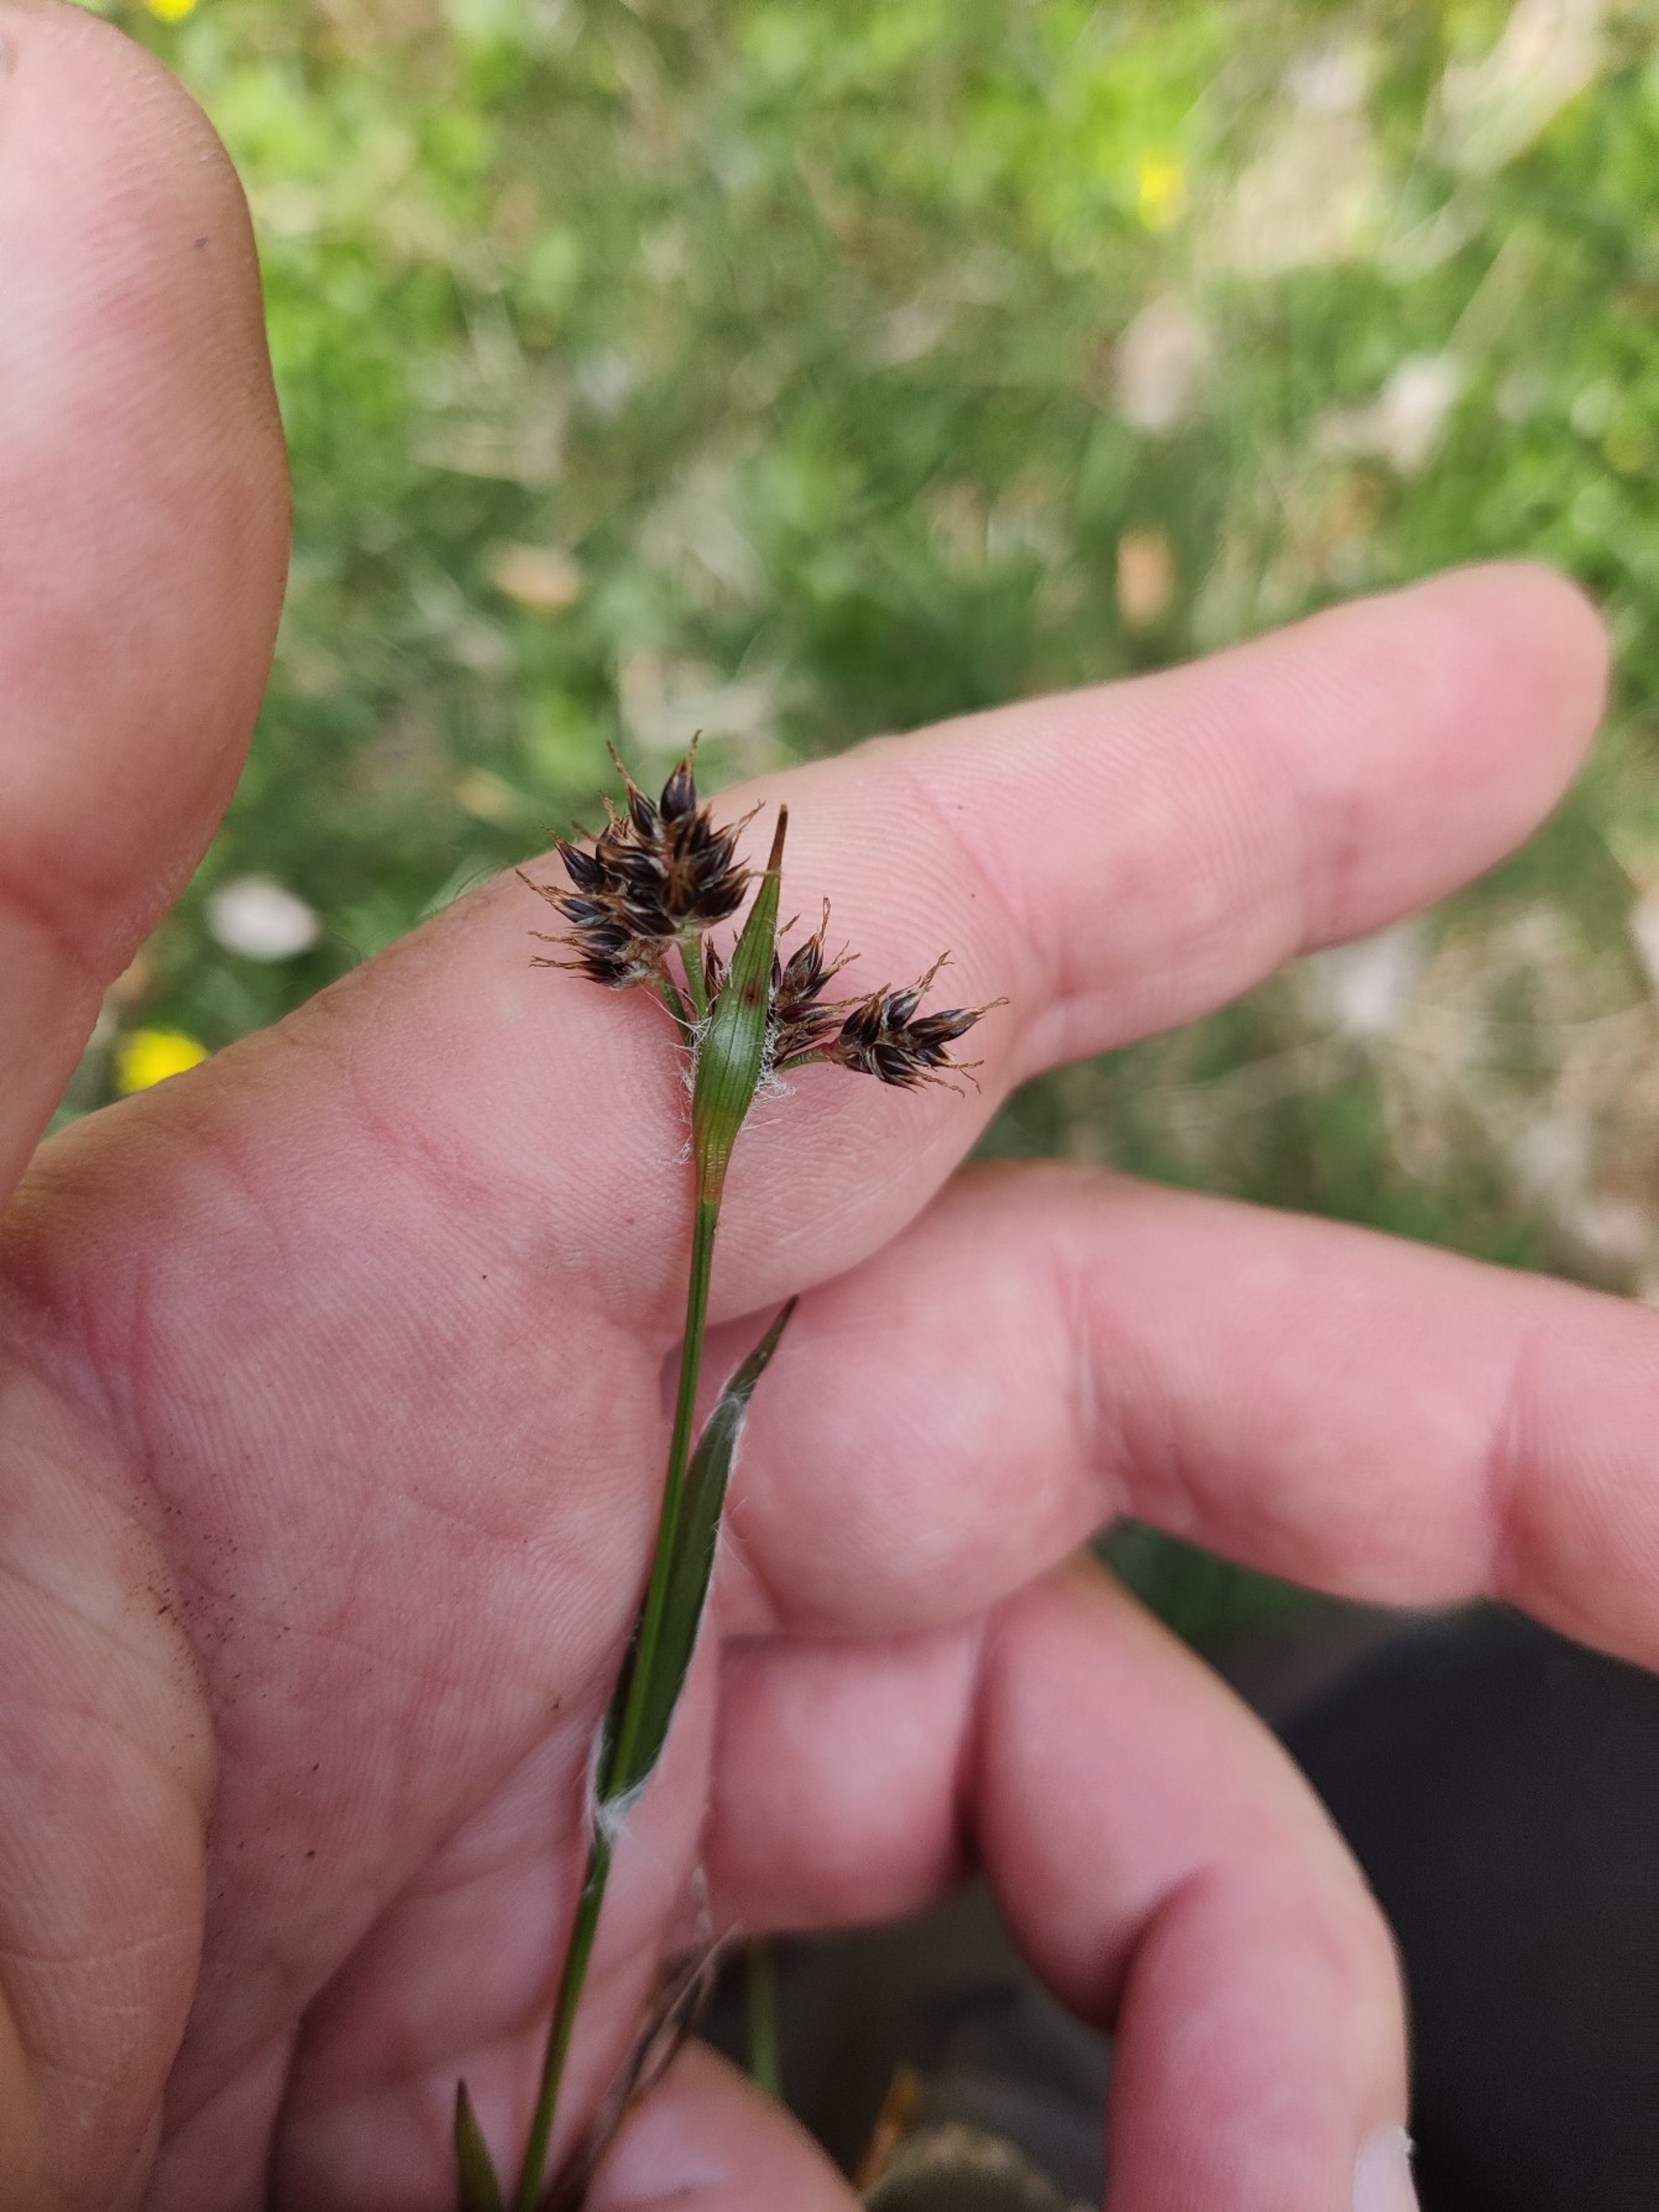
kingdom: Plantae
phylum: Tracheophyta
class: Liliopsida
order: Poales
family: Juncaceae
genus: Luzula
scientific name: Luzula campestris
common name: Mark-frytle
